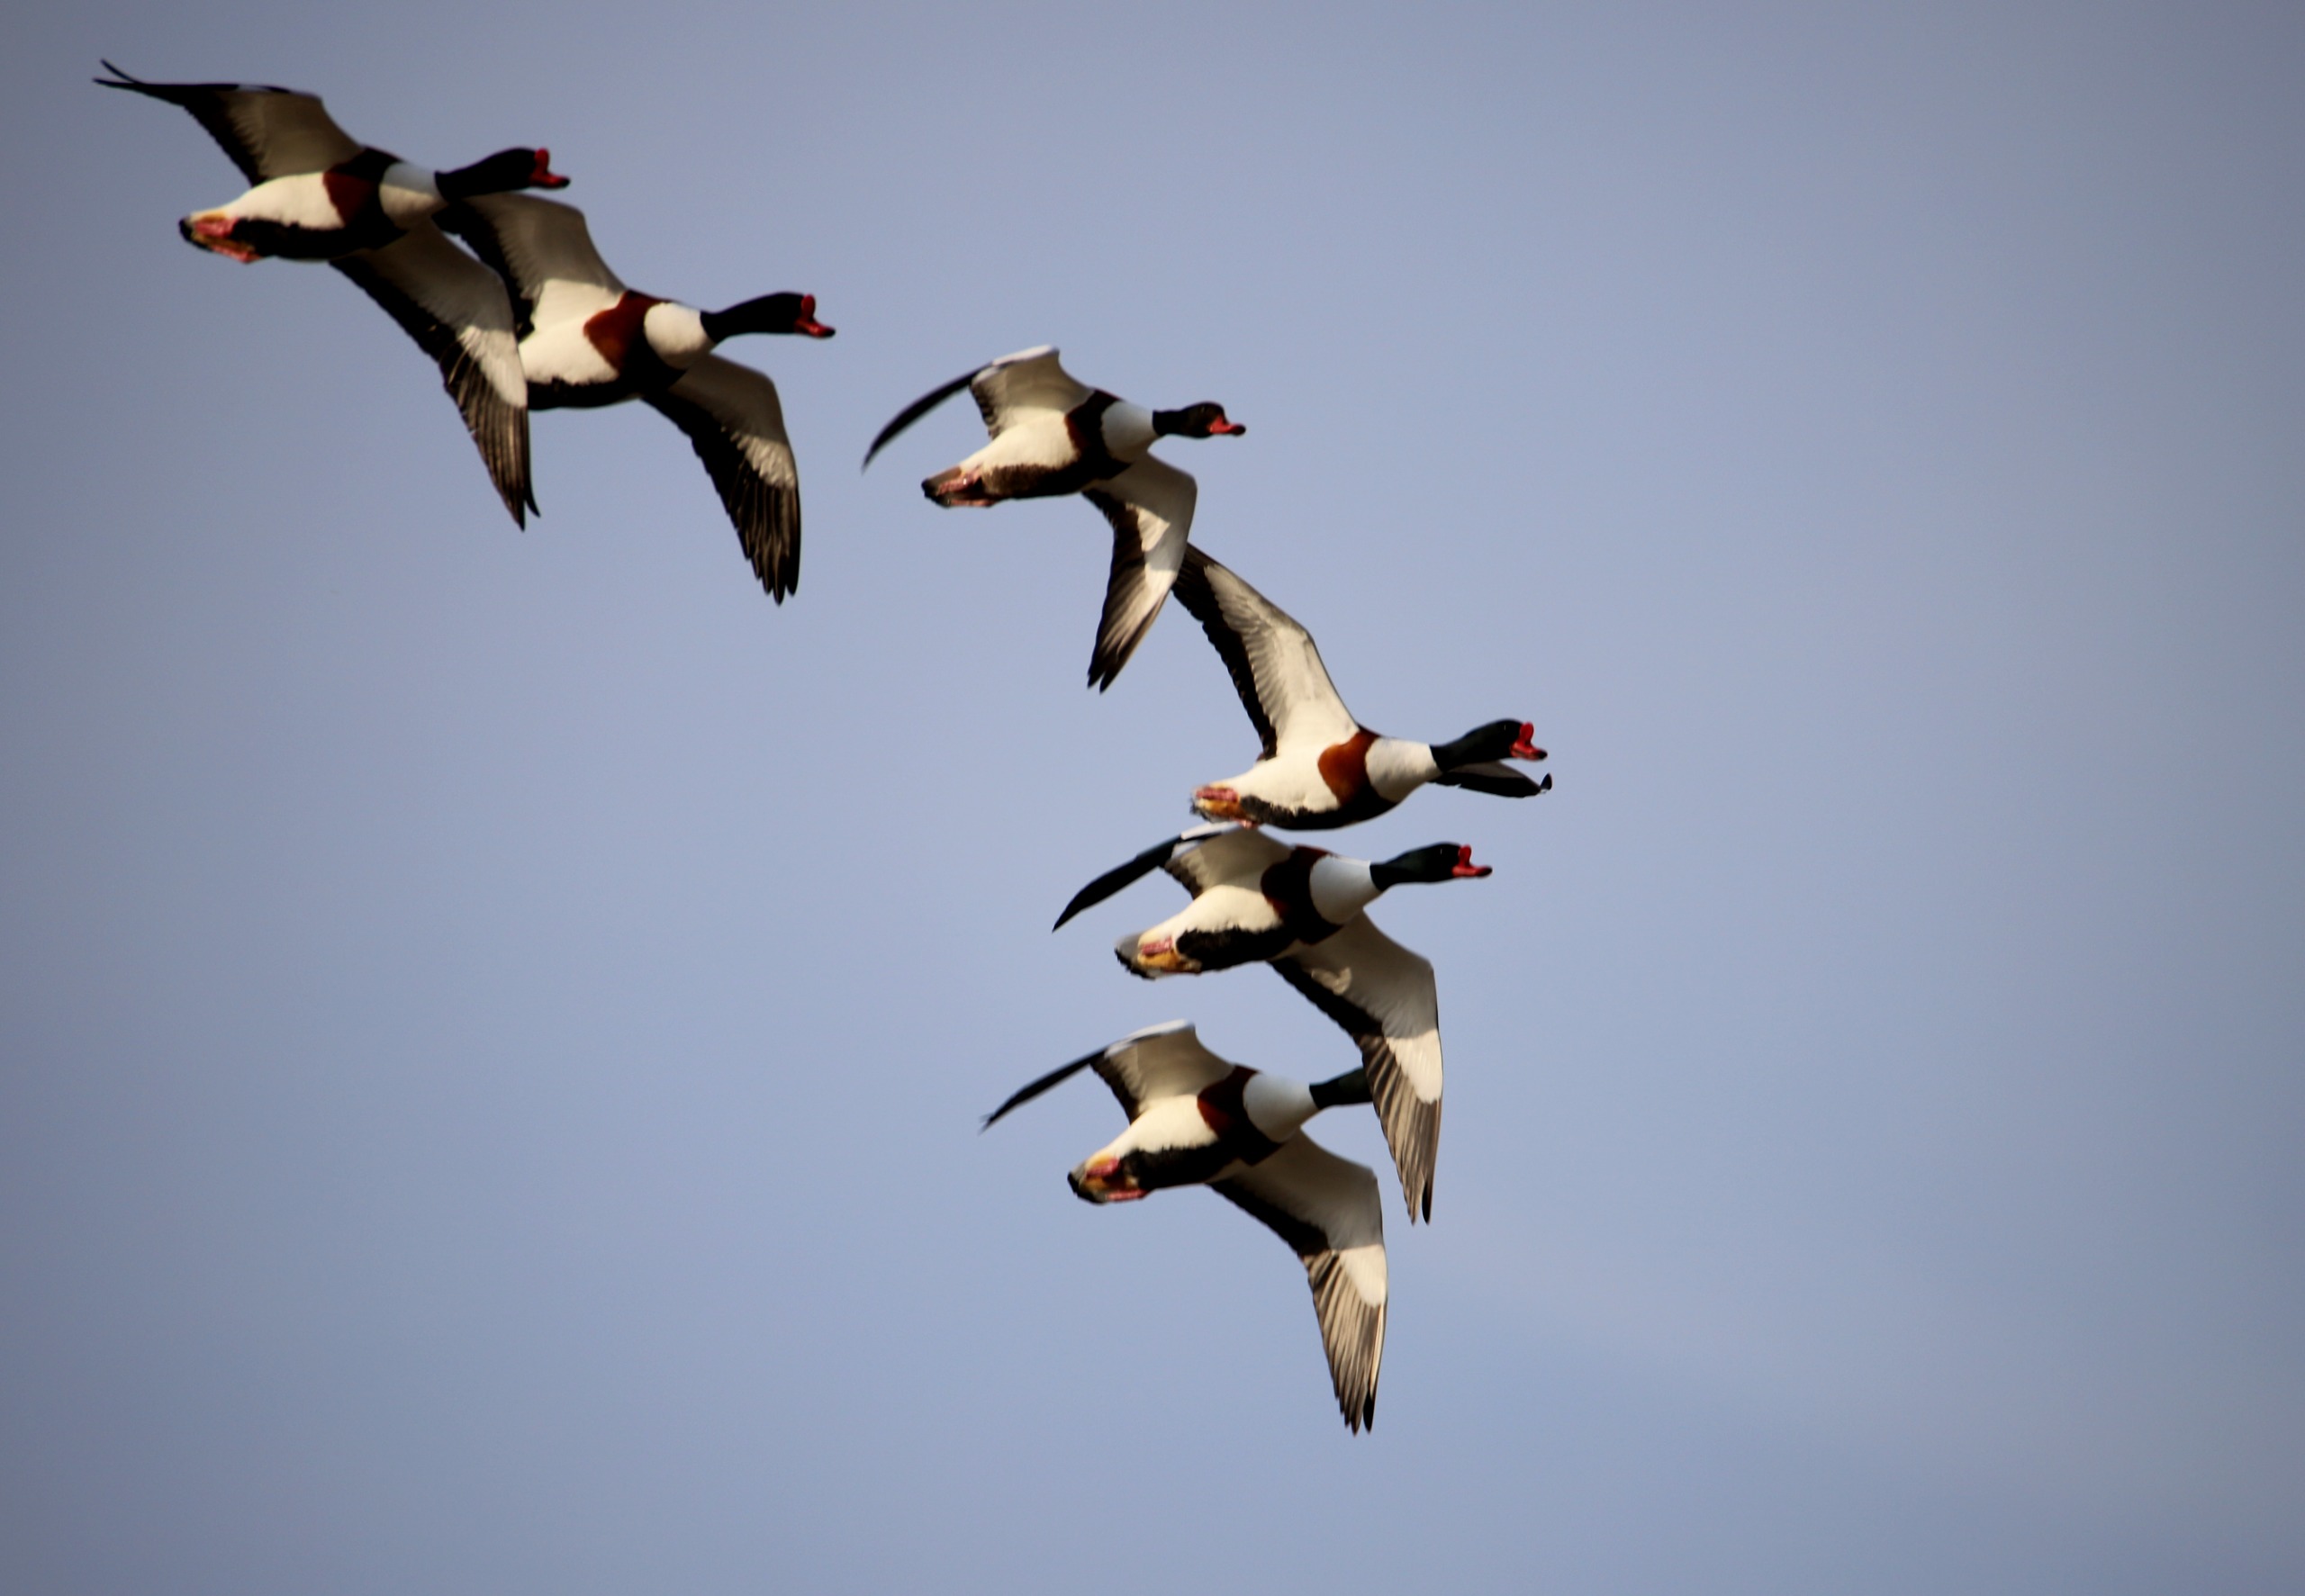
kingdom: Animalia
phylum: Chordata
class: Aves
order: Anseriformes
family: Anatidae
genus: Tadorna
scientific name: Tadorna tadorna
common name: Gravand
